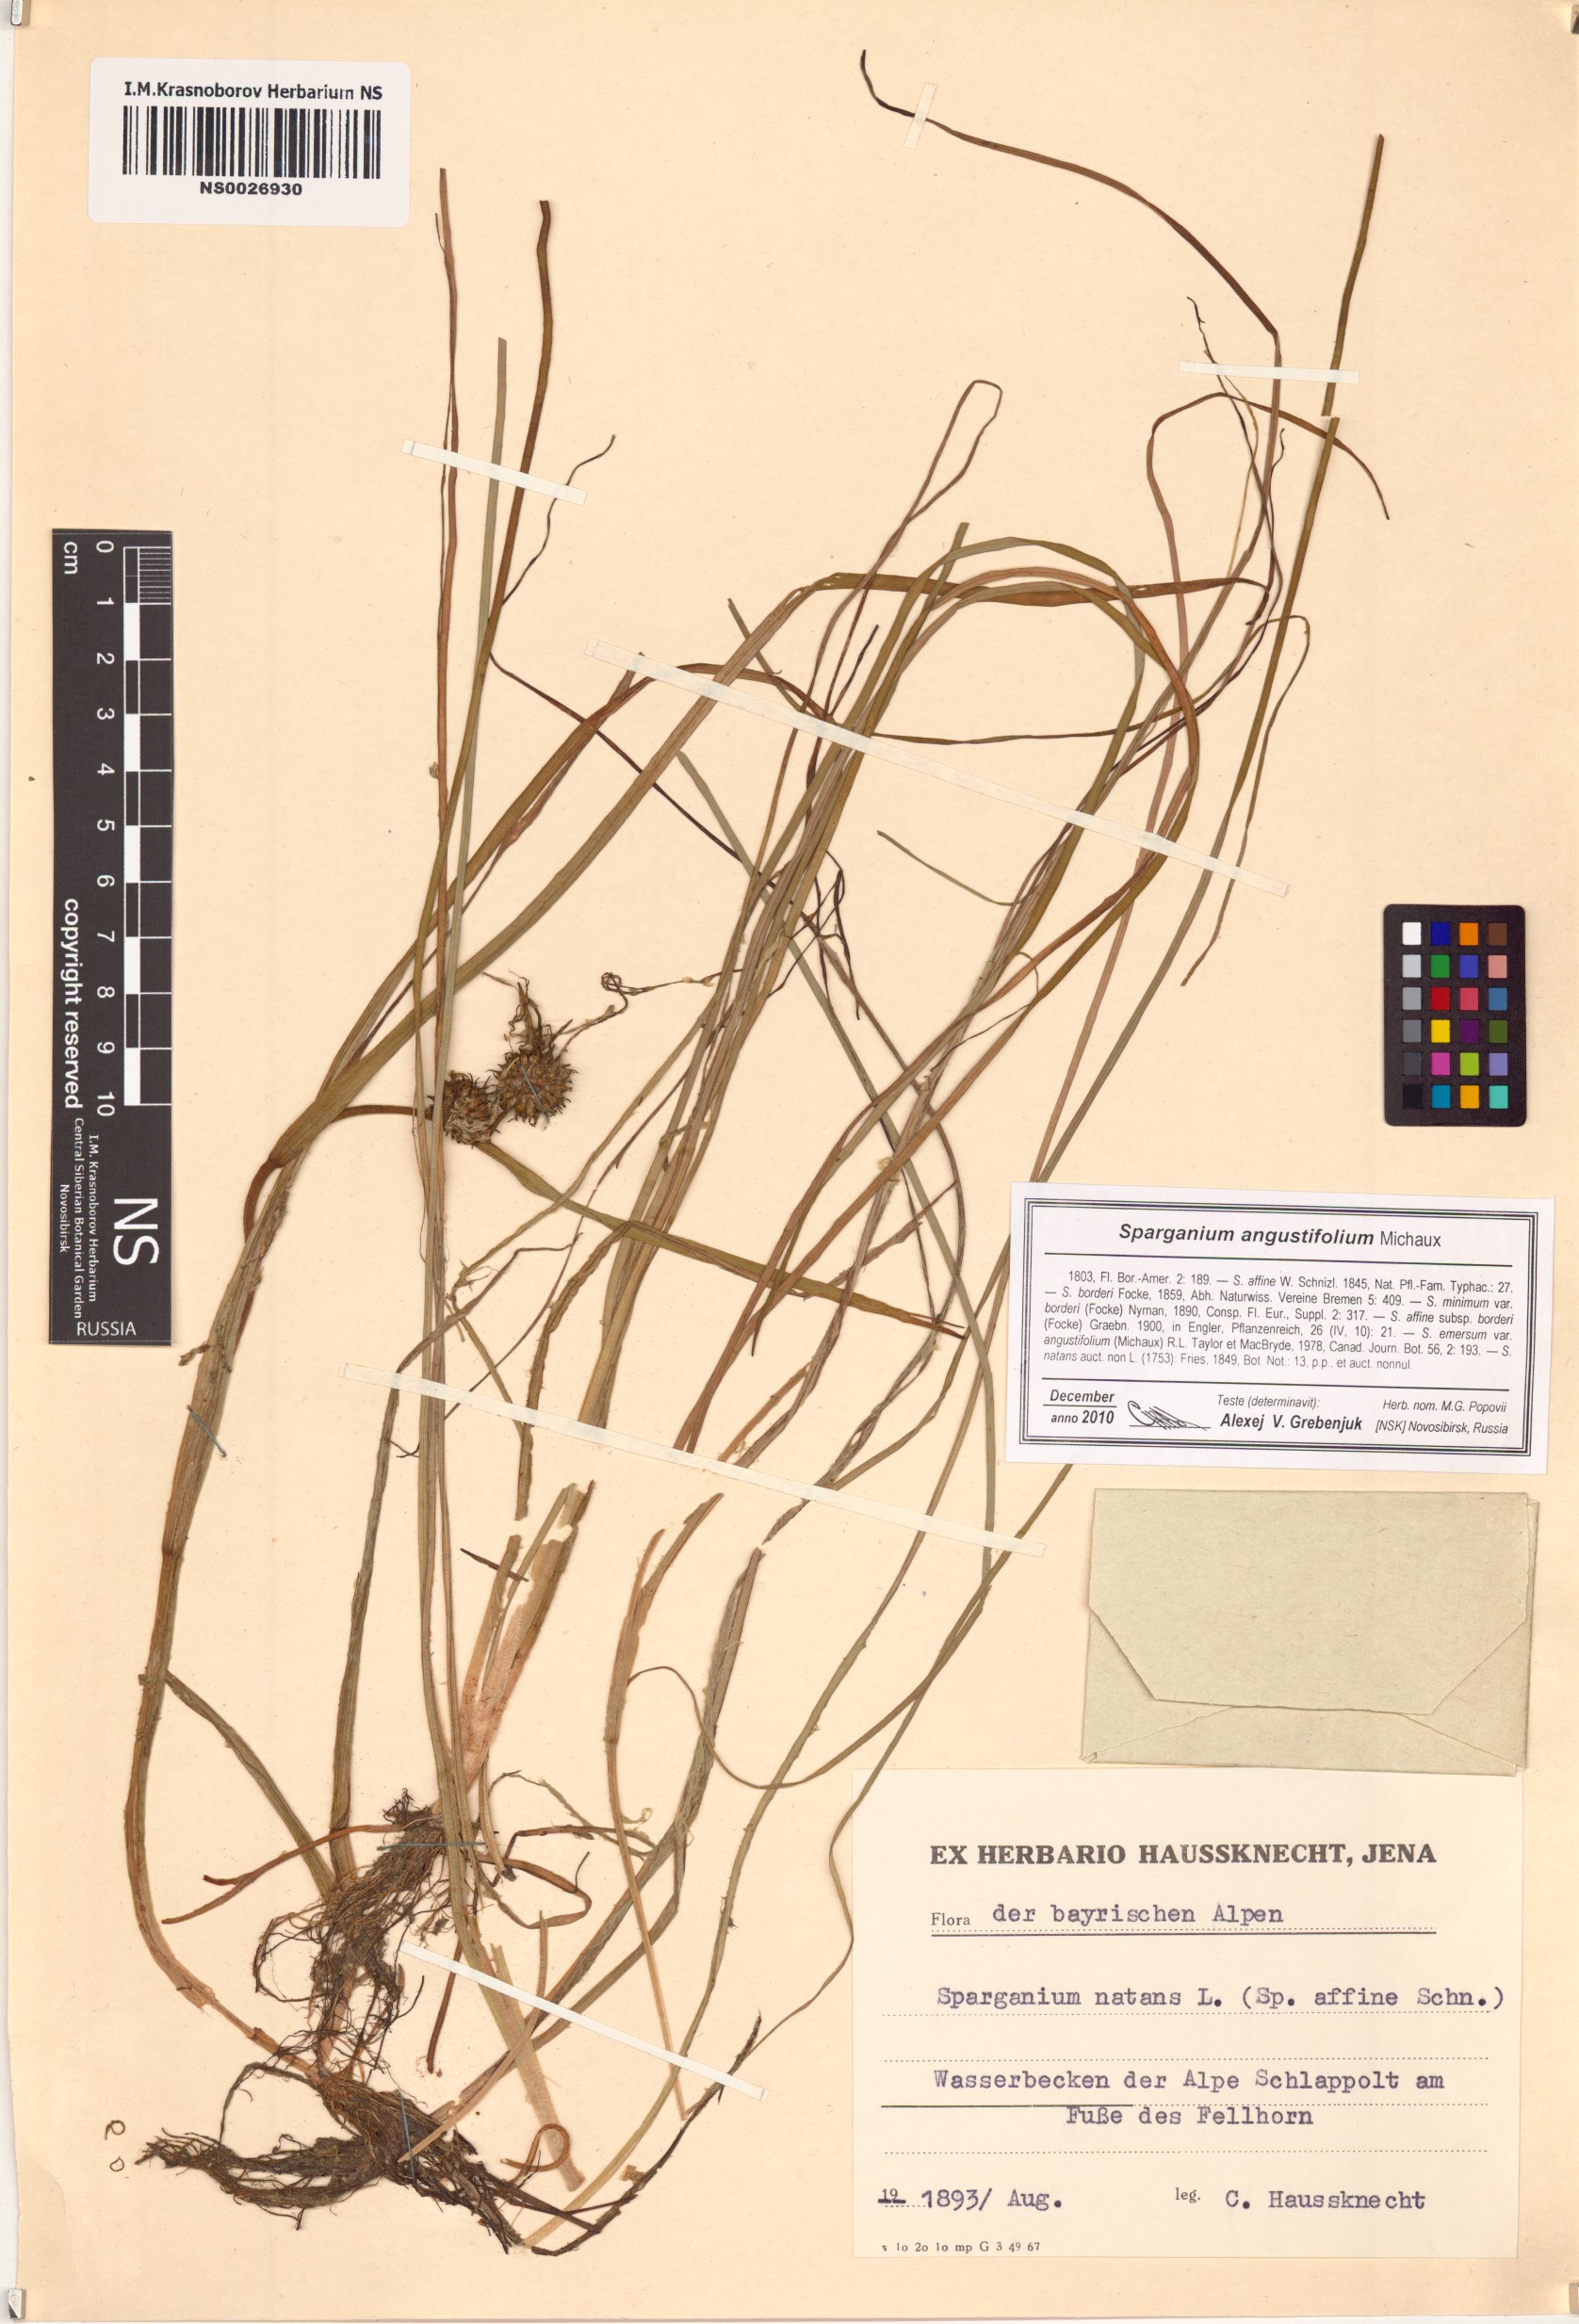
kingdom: Plantae
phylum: Tracheophyta
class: Liliopsida
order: Poales
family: Typhaceae
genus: Sparganium
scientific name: Sparganium angustifolium
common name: Floating bur-reed
